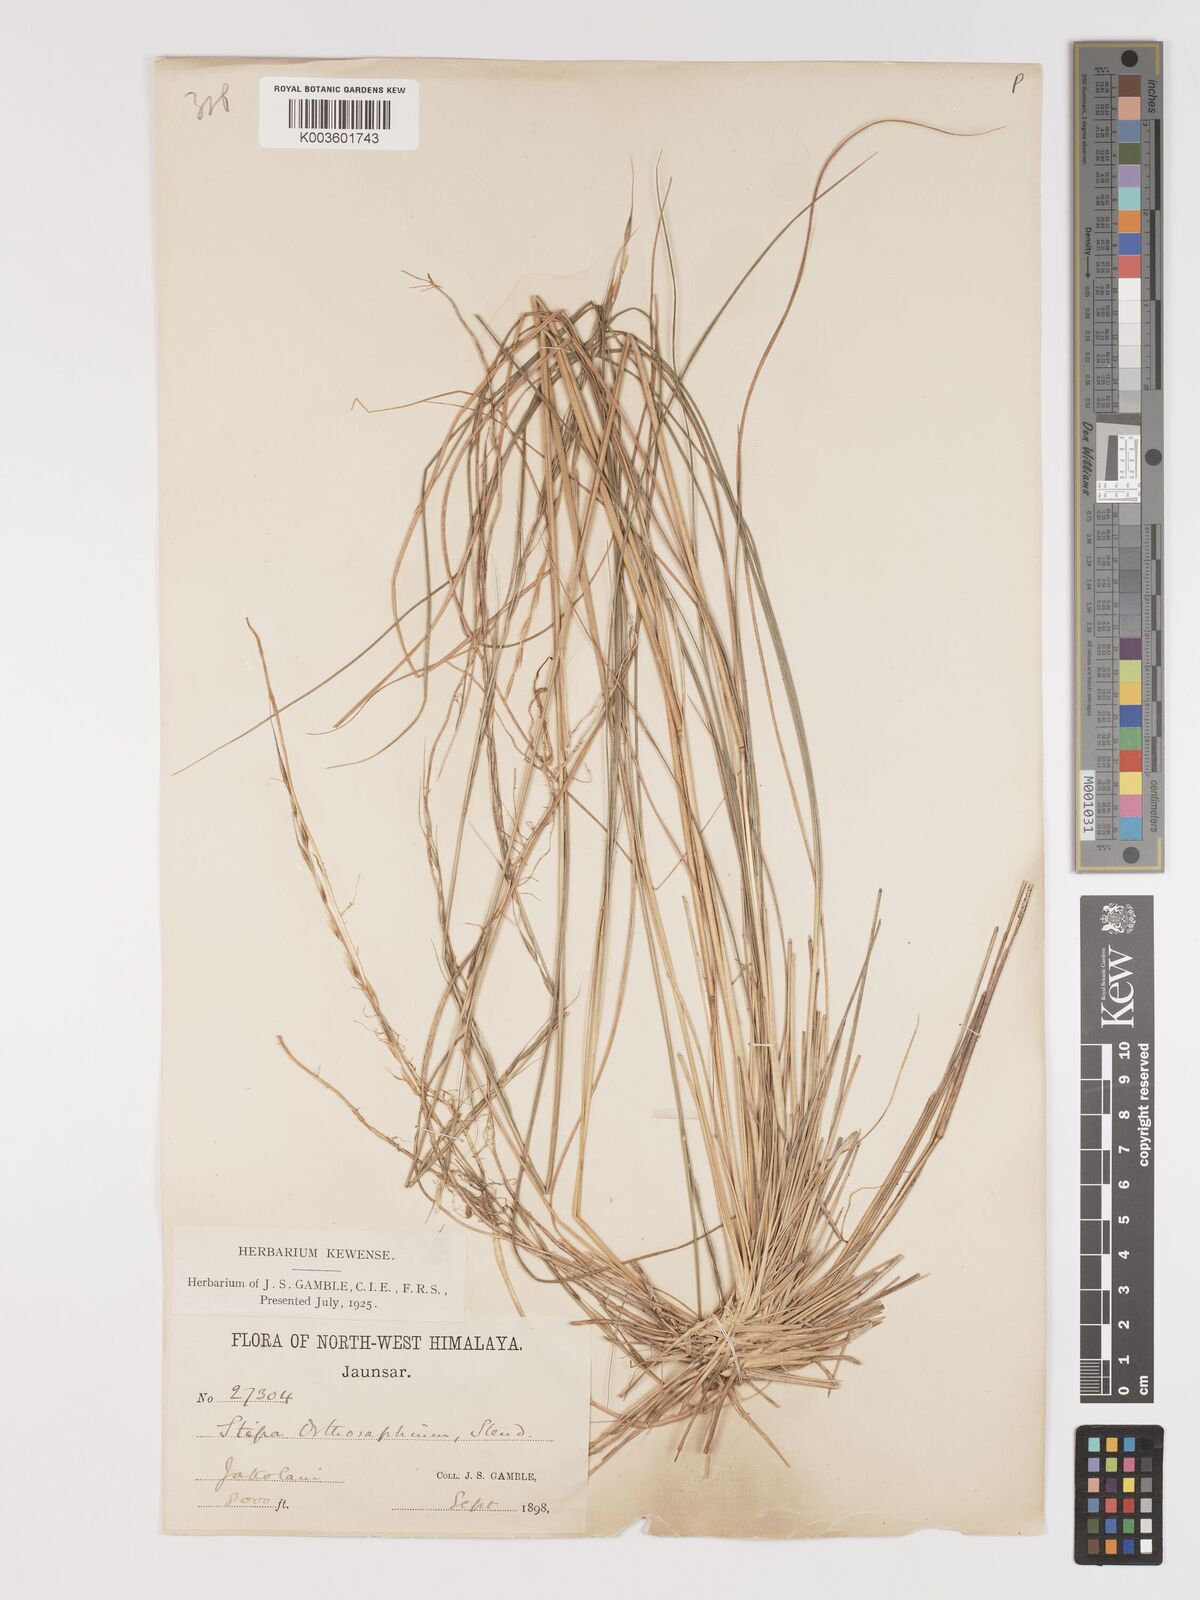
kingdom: Plantae
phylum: Tracheophyta
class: Liliopsida
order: Poales
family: Poaceae
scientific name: Poaceae
